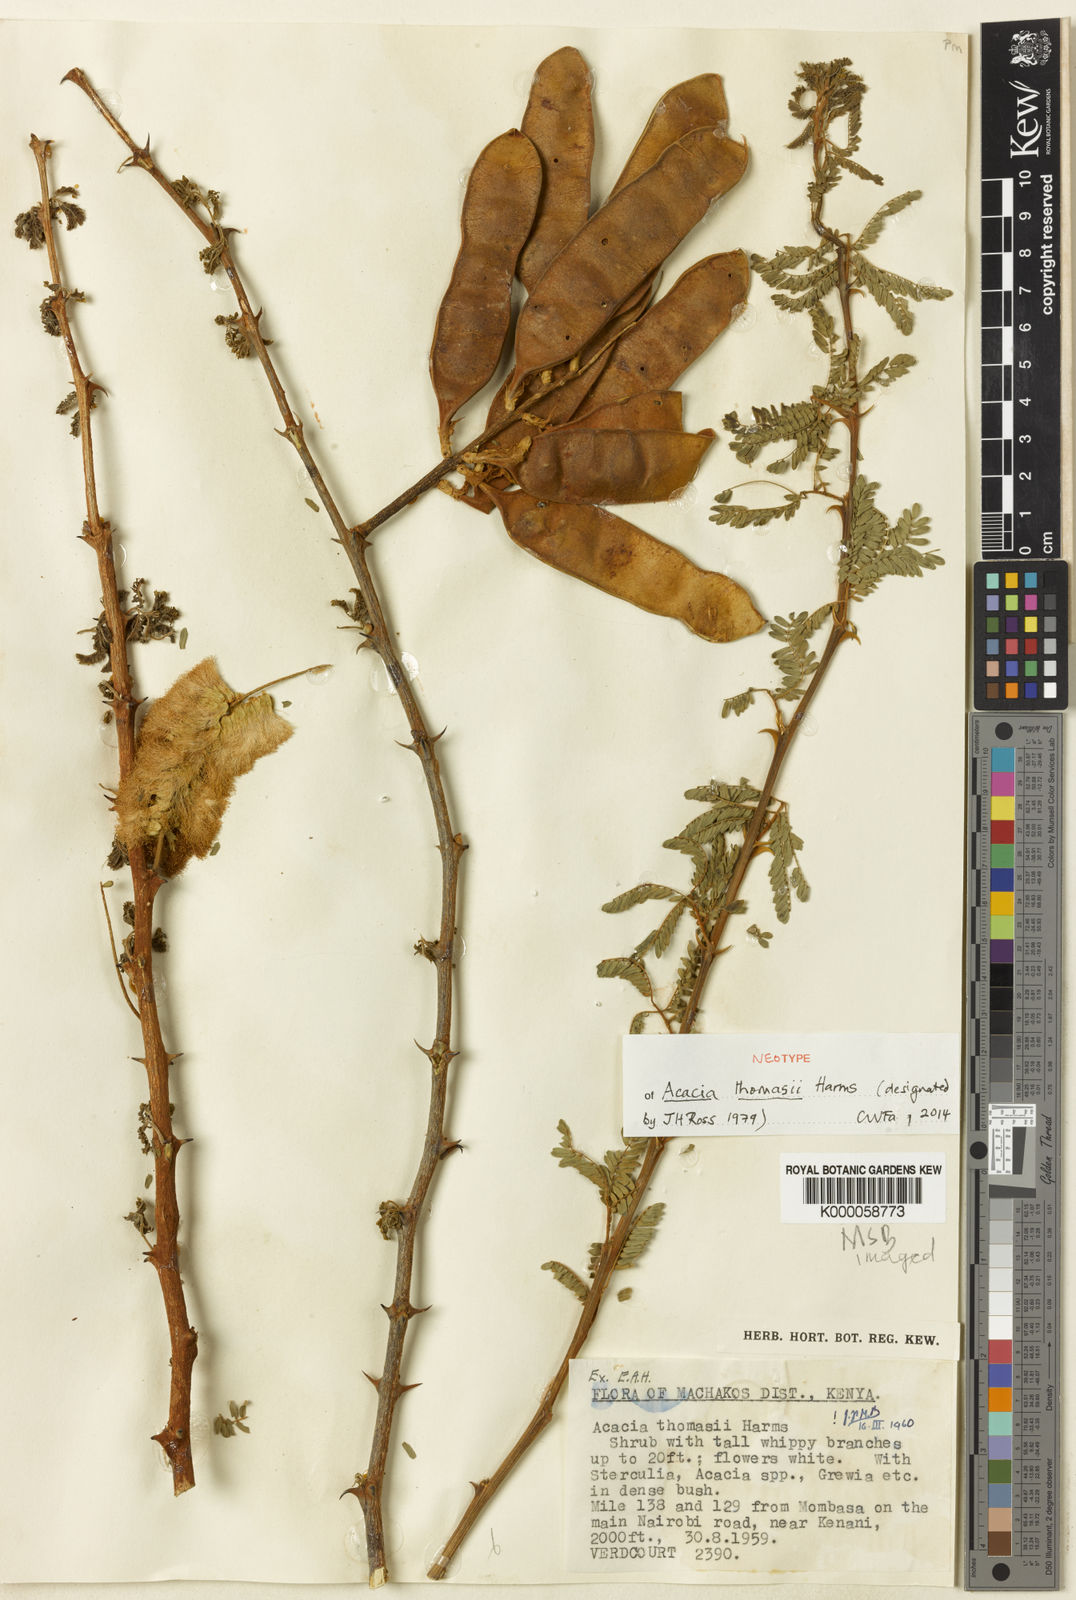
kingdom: Plantae
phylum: Tracheophyta
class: Magnoliopsida
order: Fabales
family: Fabaceae
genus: Senegalia
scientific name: Senegalia thomasii
